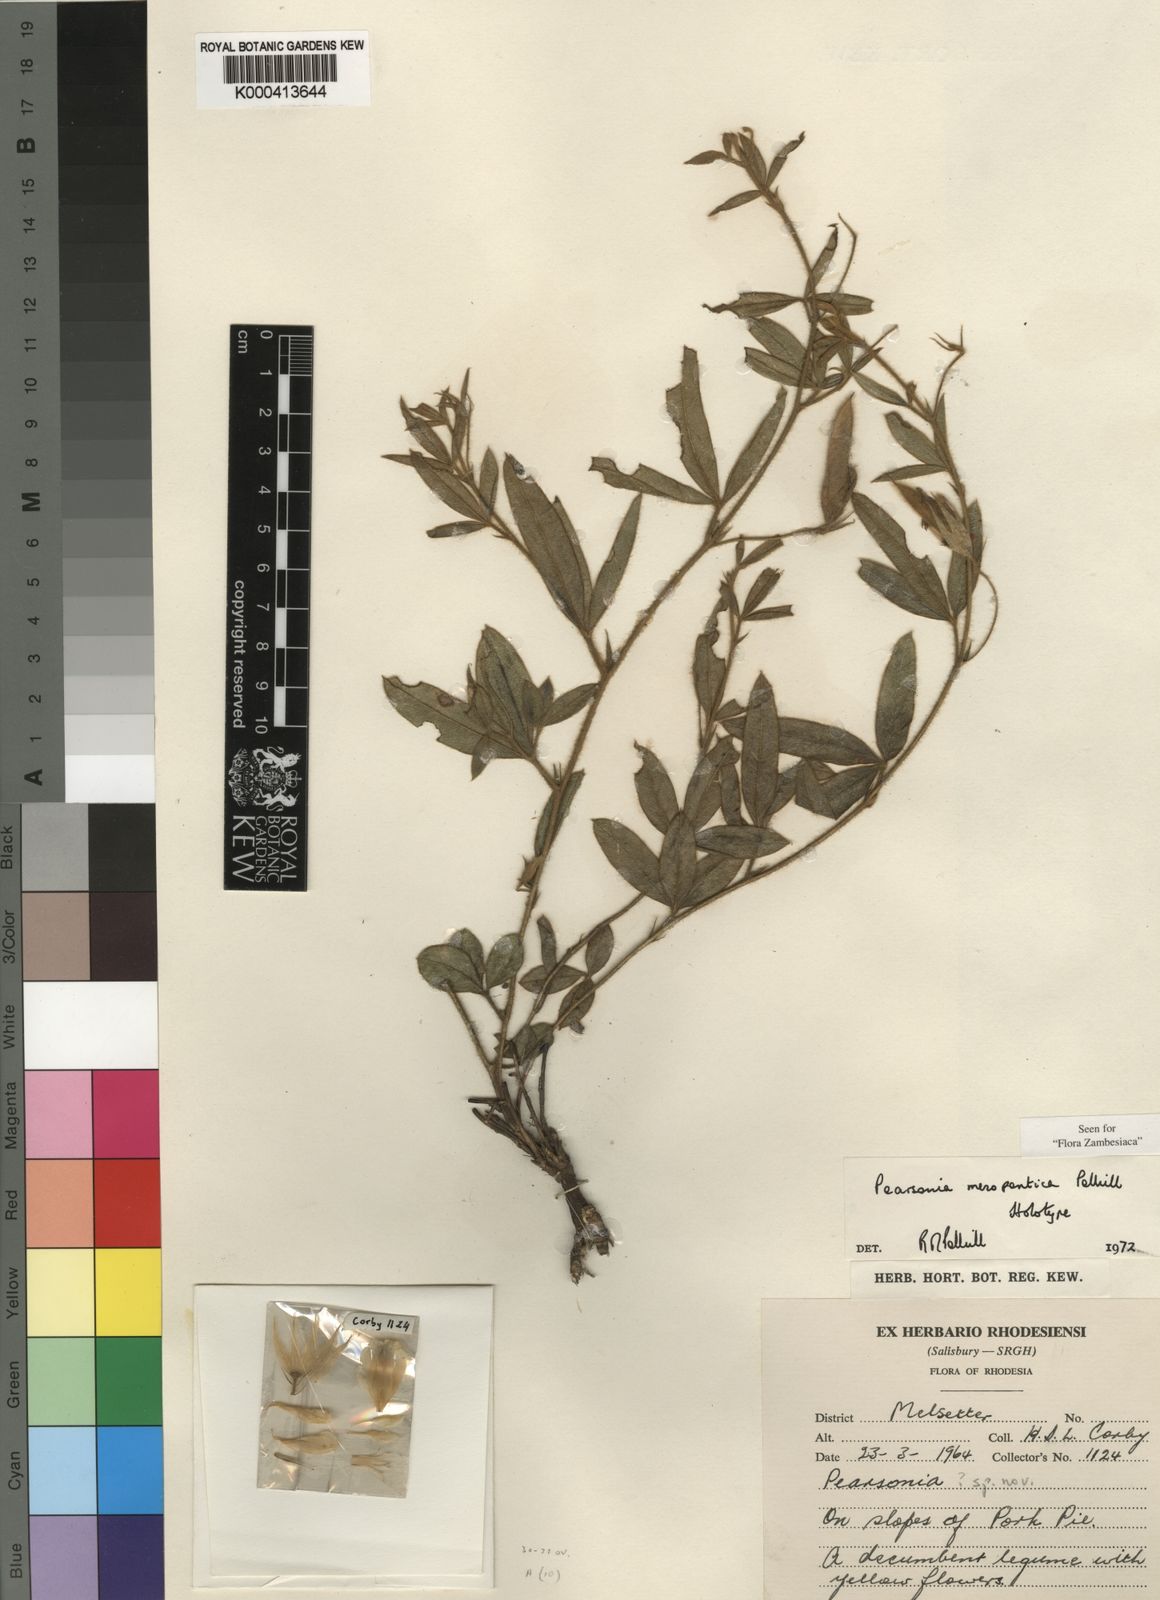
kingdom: Plantae
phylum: Tracheophyta
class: Magnoliopsida
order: Fabales
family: Fabaceae
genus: Pearsonia
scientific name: Pearsonia mesopontica
